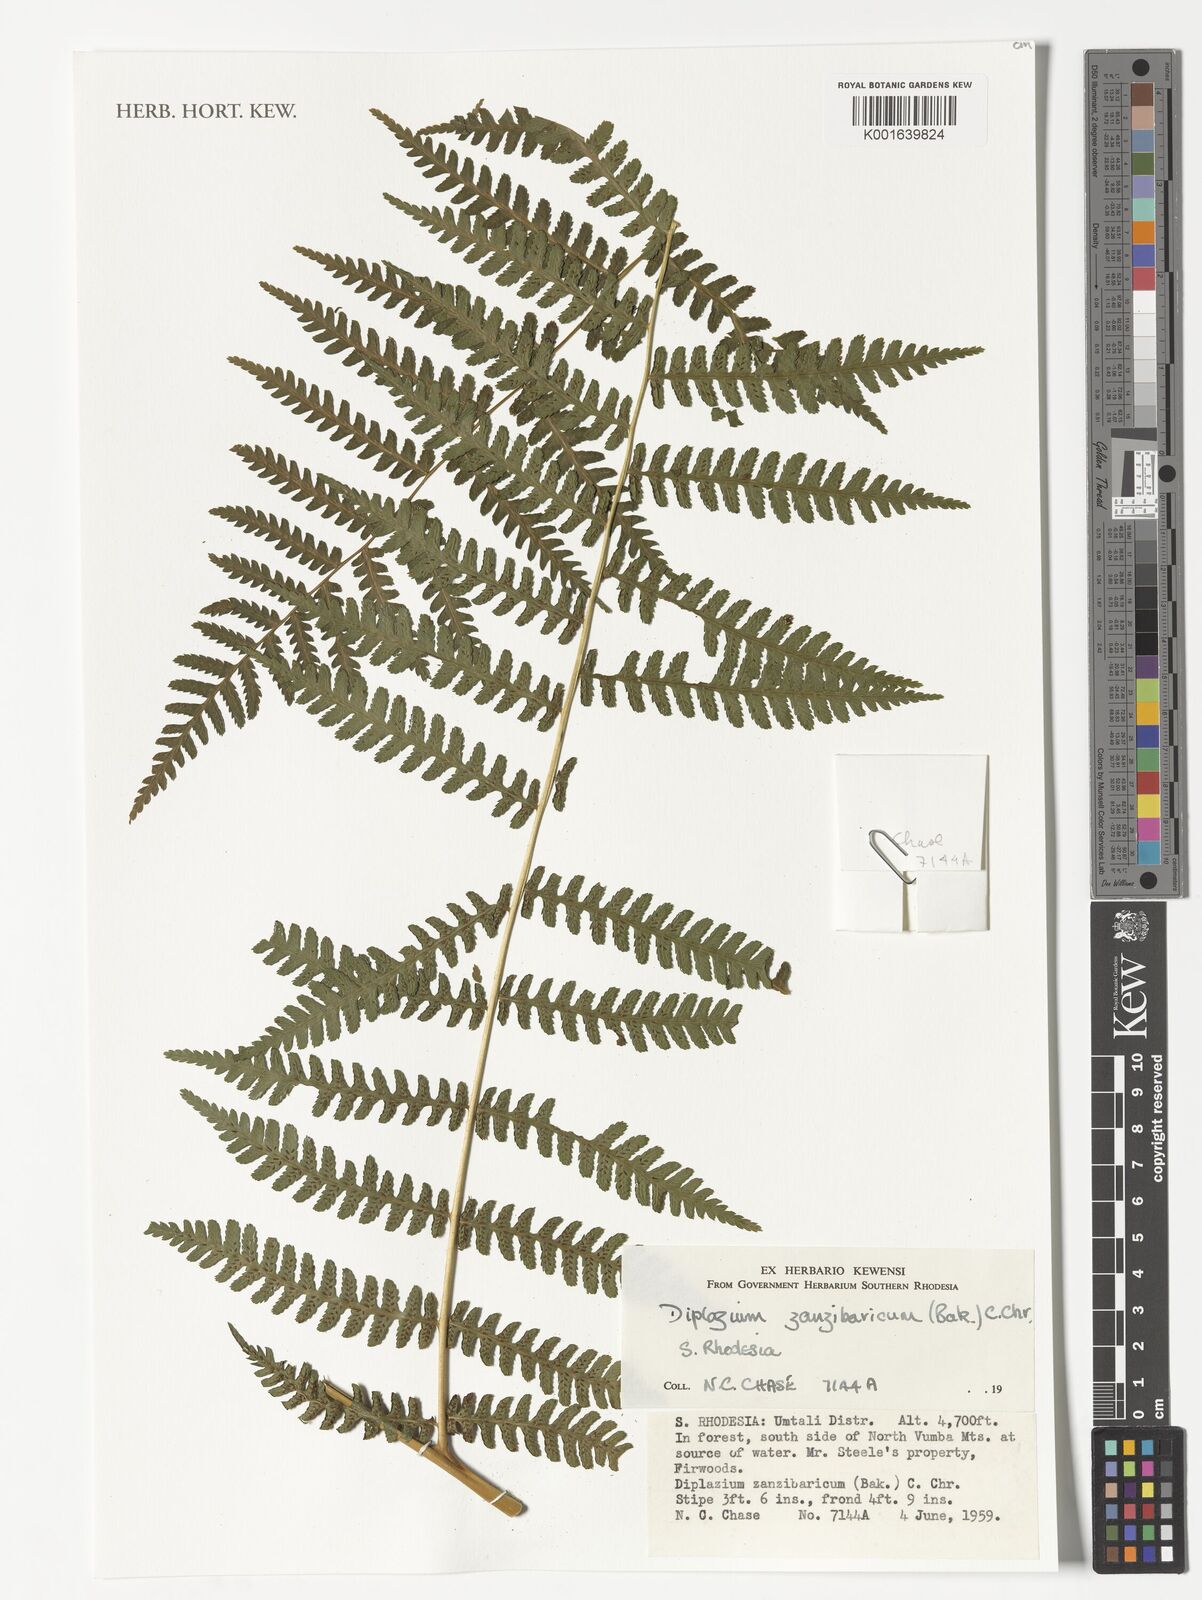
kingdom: Plantae
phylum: Tracheophyta
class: Polypodiopsida
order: Polypodiales
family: Athyriaceae
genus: Diplazium
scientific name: Diplazium zanzibaricum
